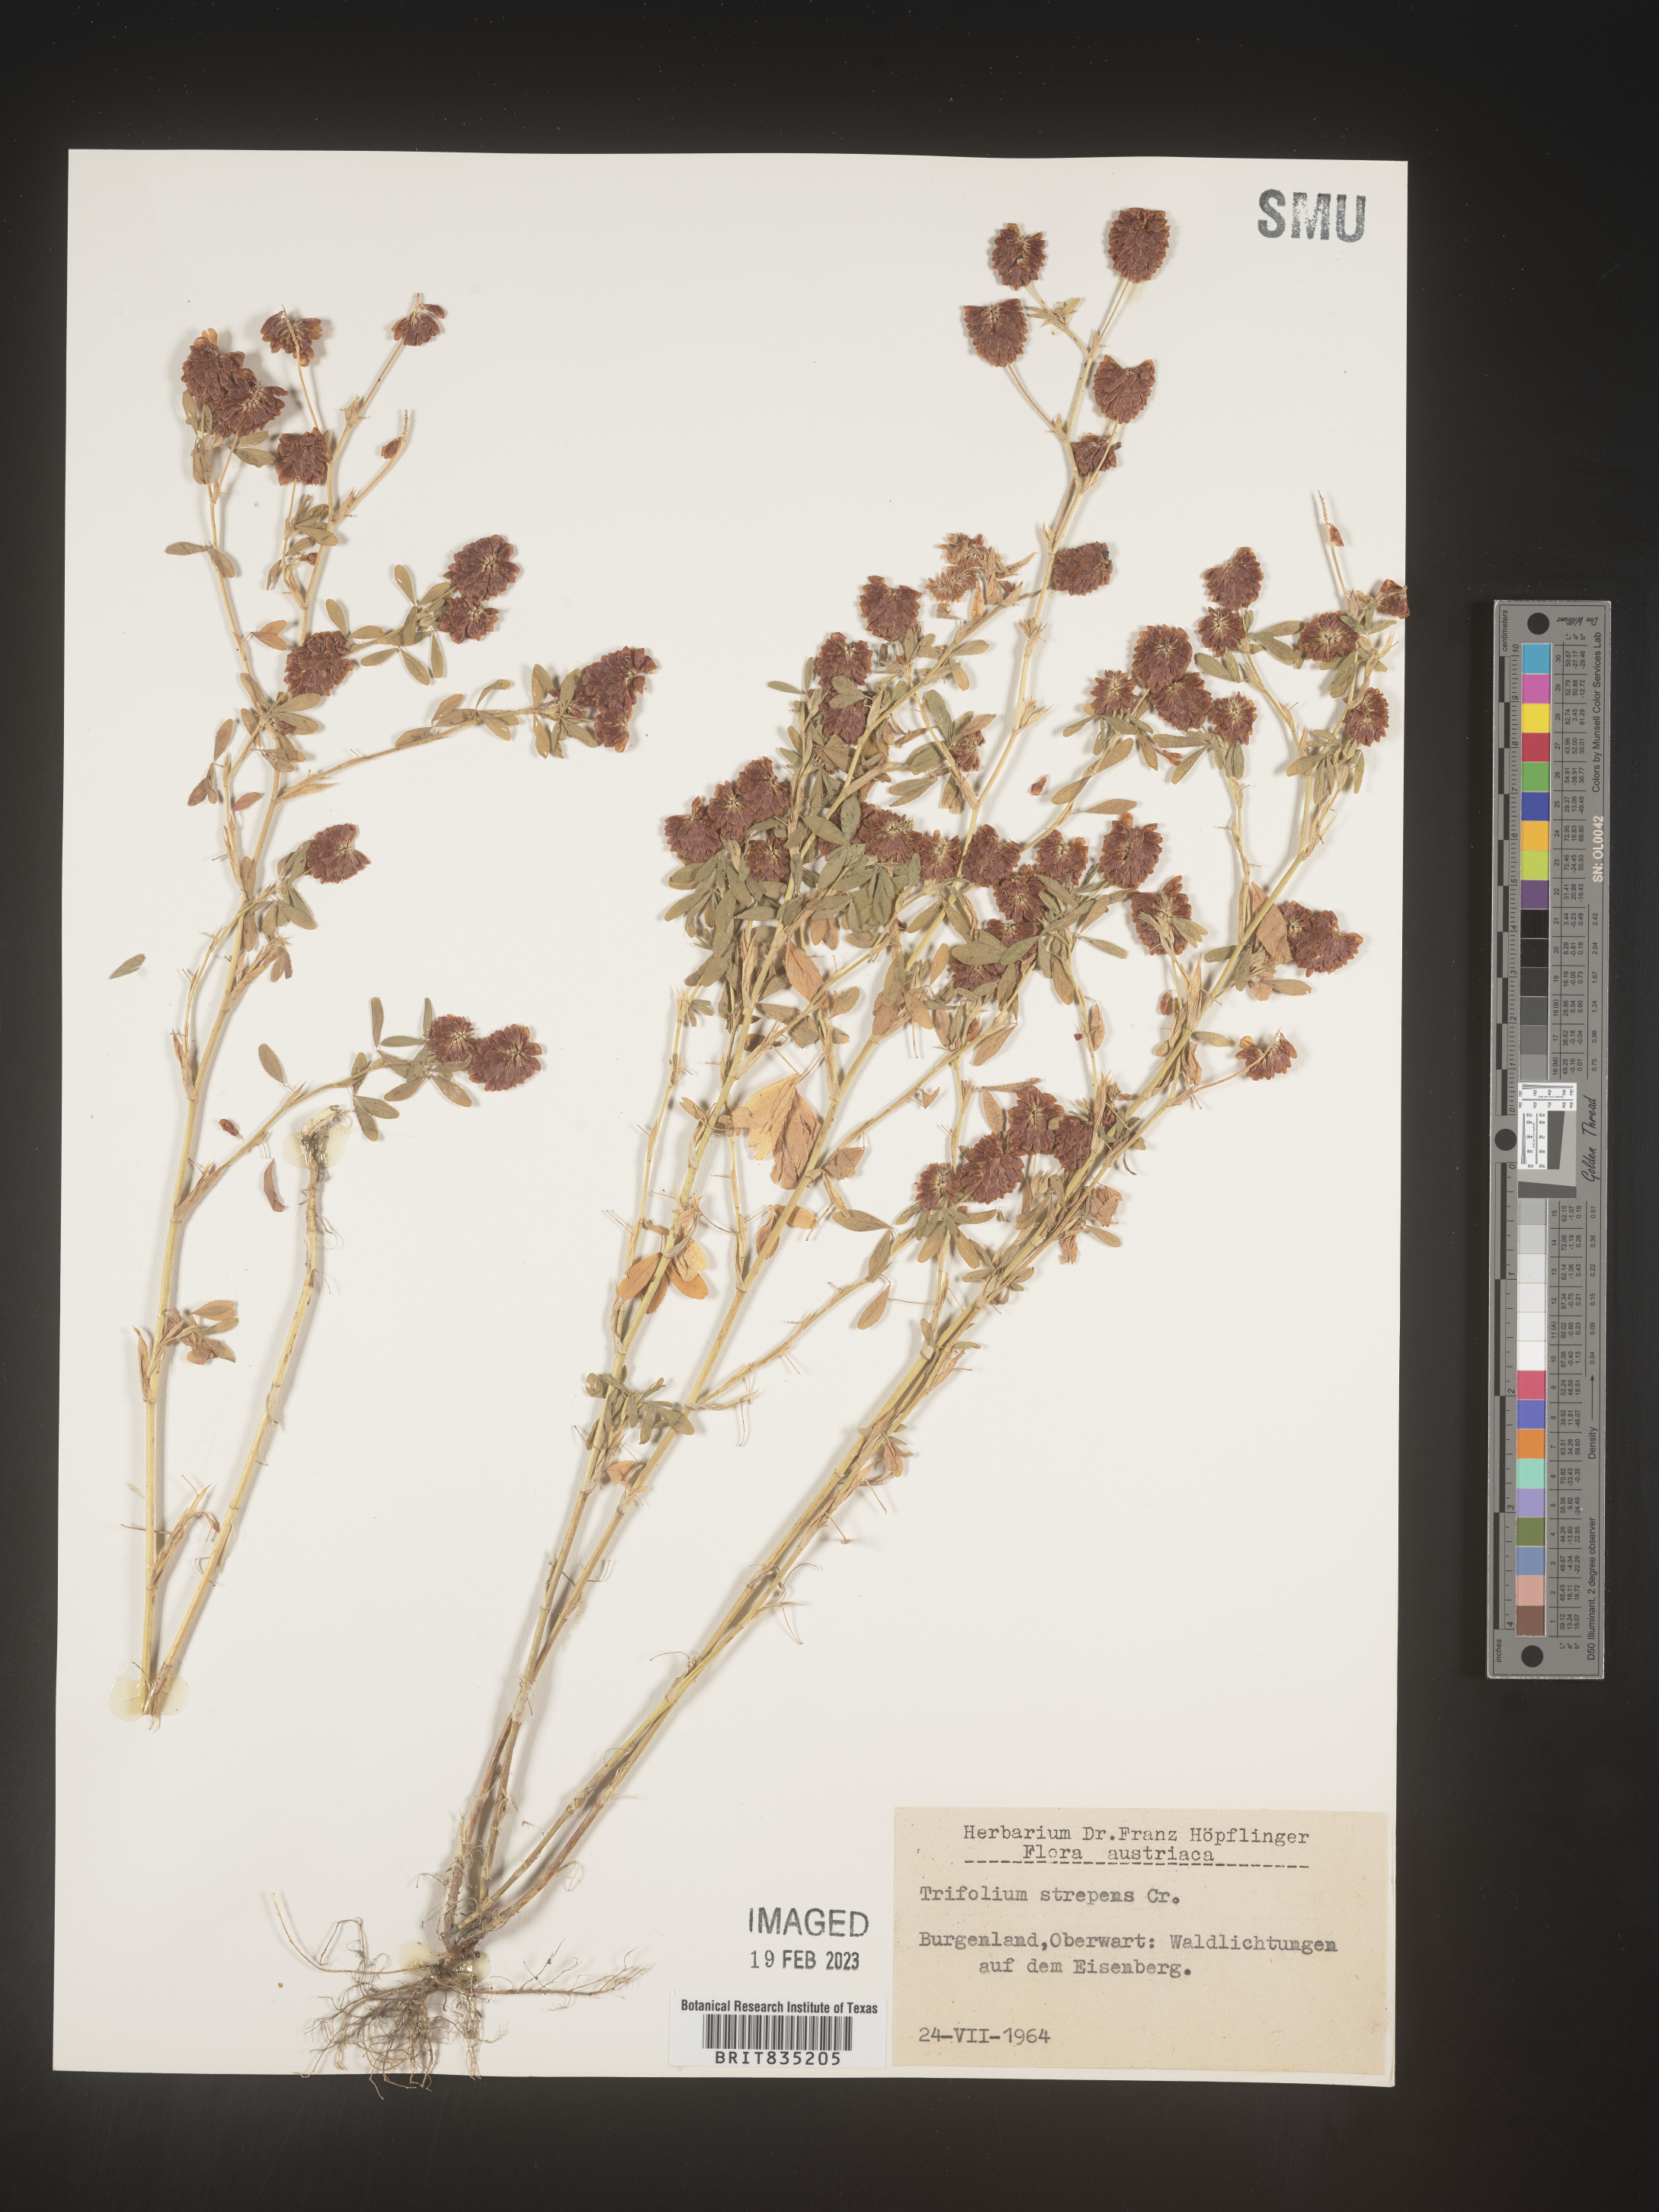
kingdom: Plantae
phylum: Tracheophyta
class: Magnoliopsida
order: Fabales
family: Fabaceae
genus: Trifolium
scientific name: Trifolium
